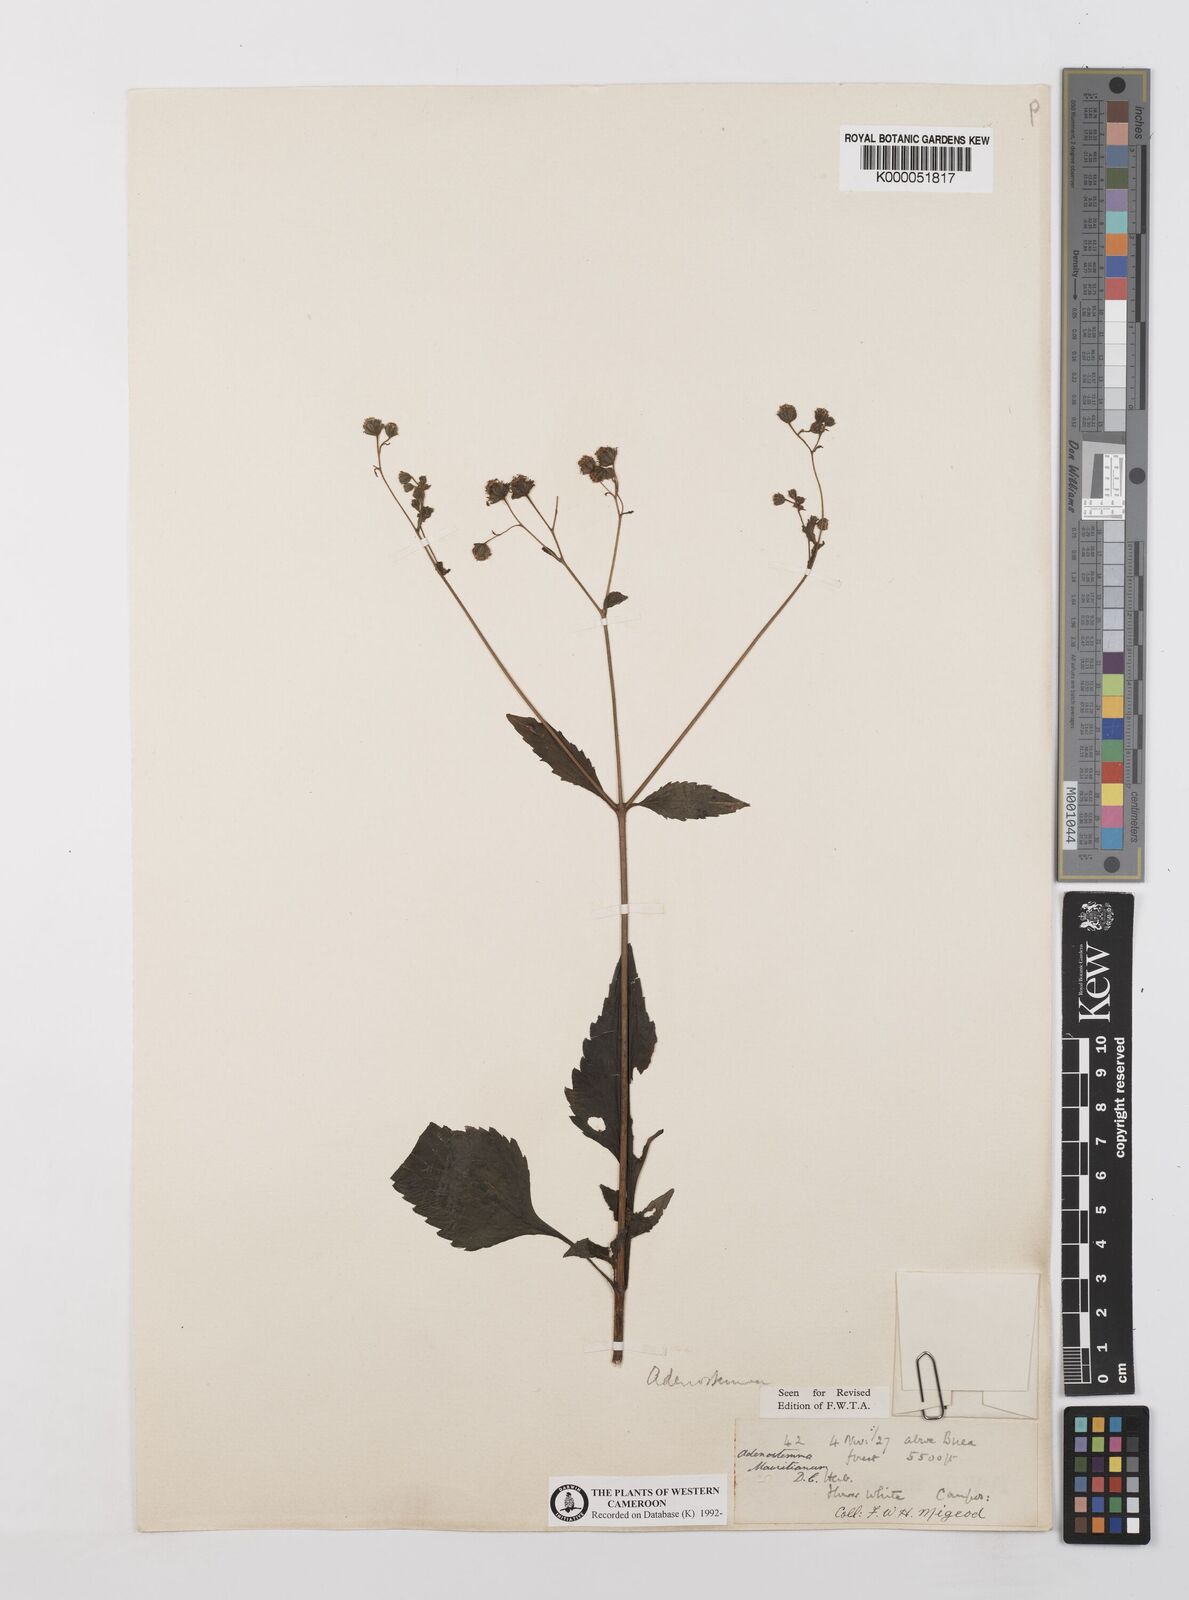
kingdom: Plantae
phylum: Tracheophyta
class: Magnoliopsida
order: Asterales
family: Asteraceae
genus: Adenostemma
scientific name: Adenostemma mauritianum
